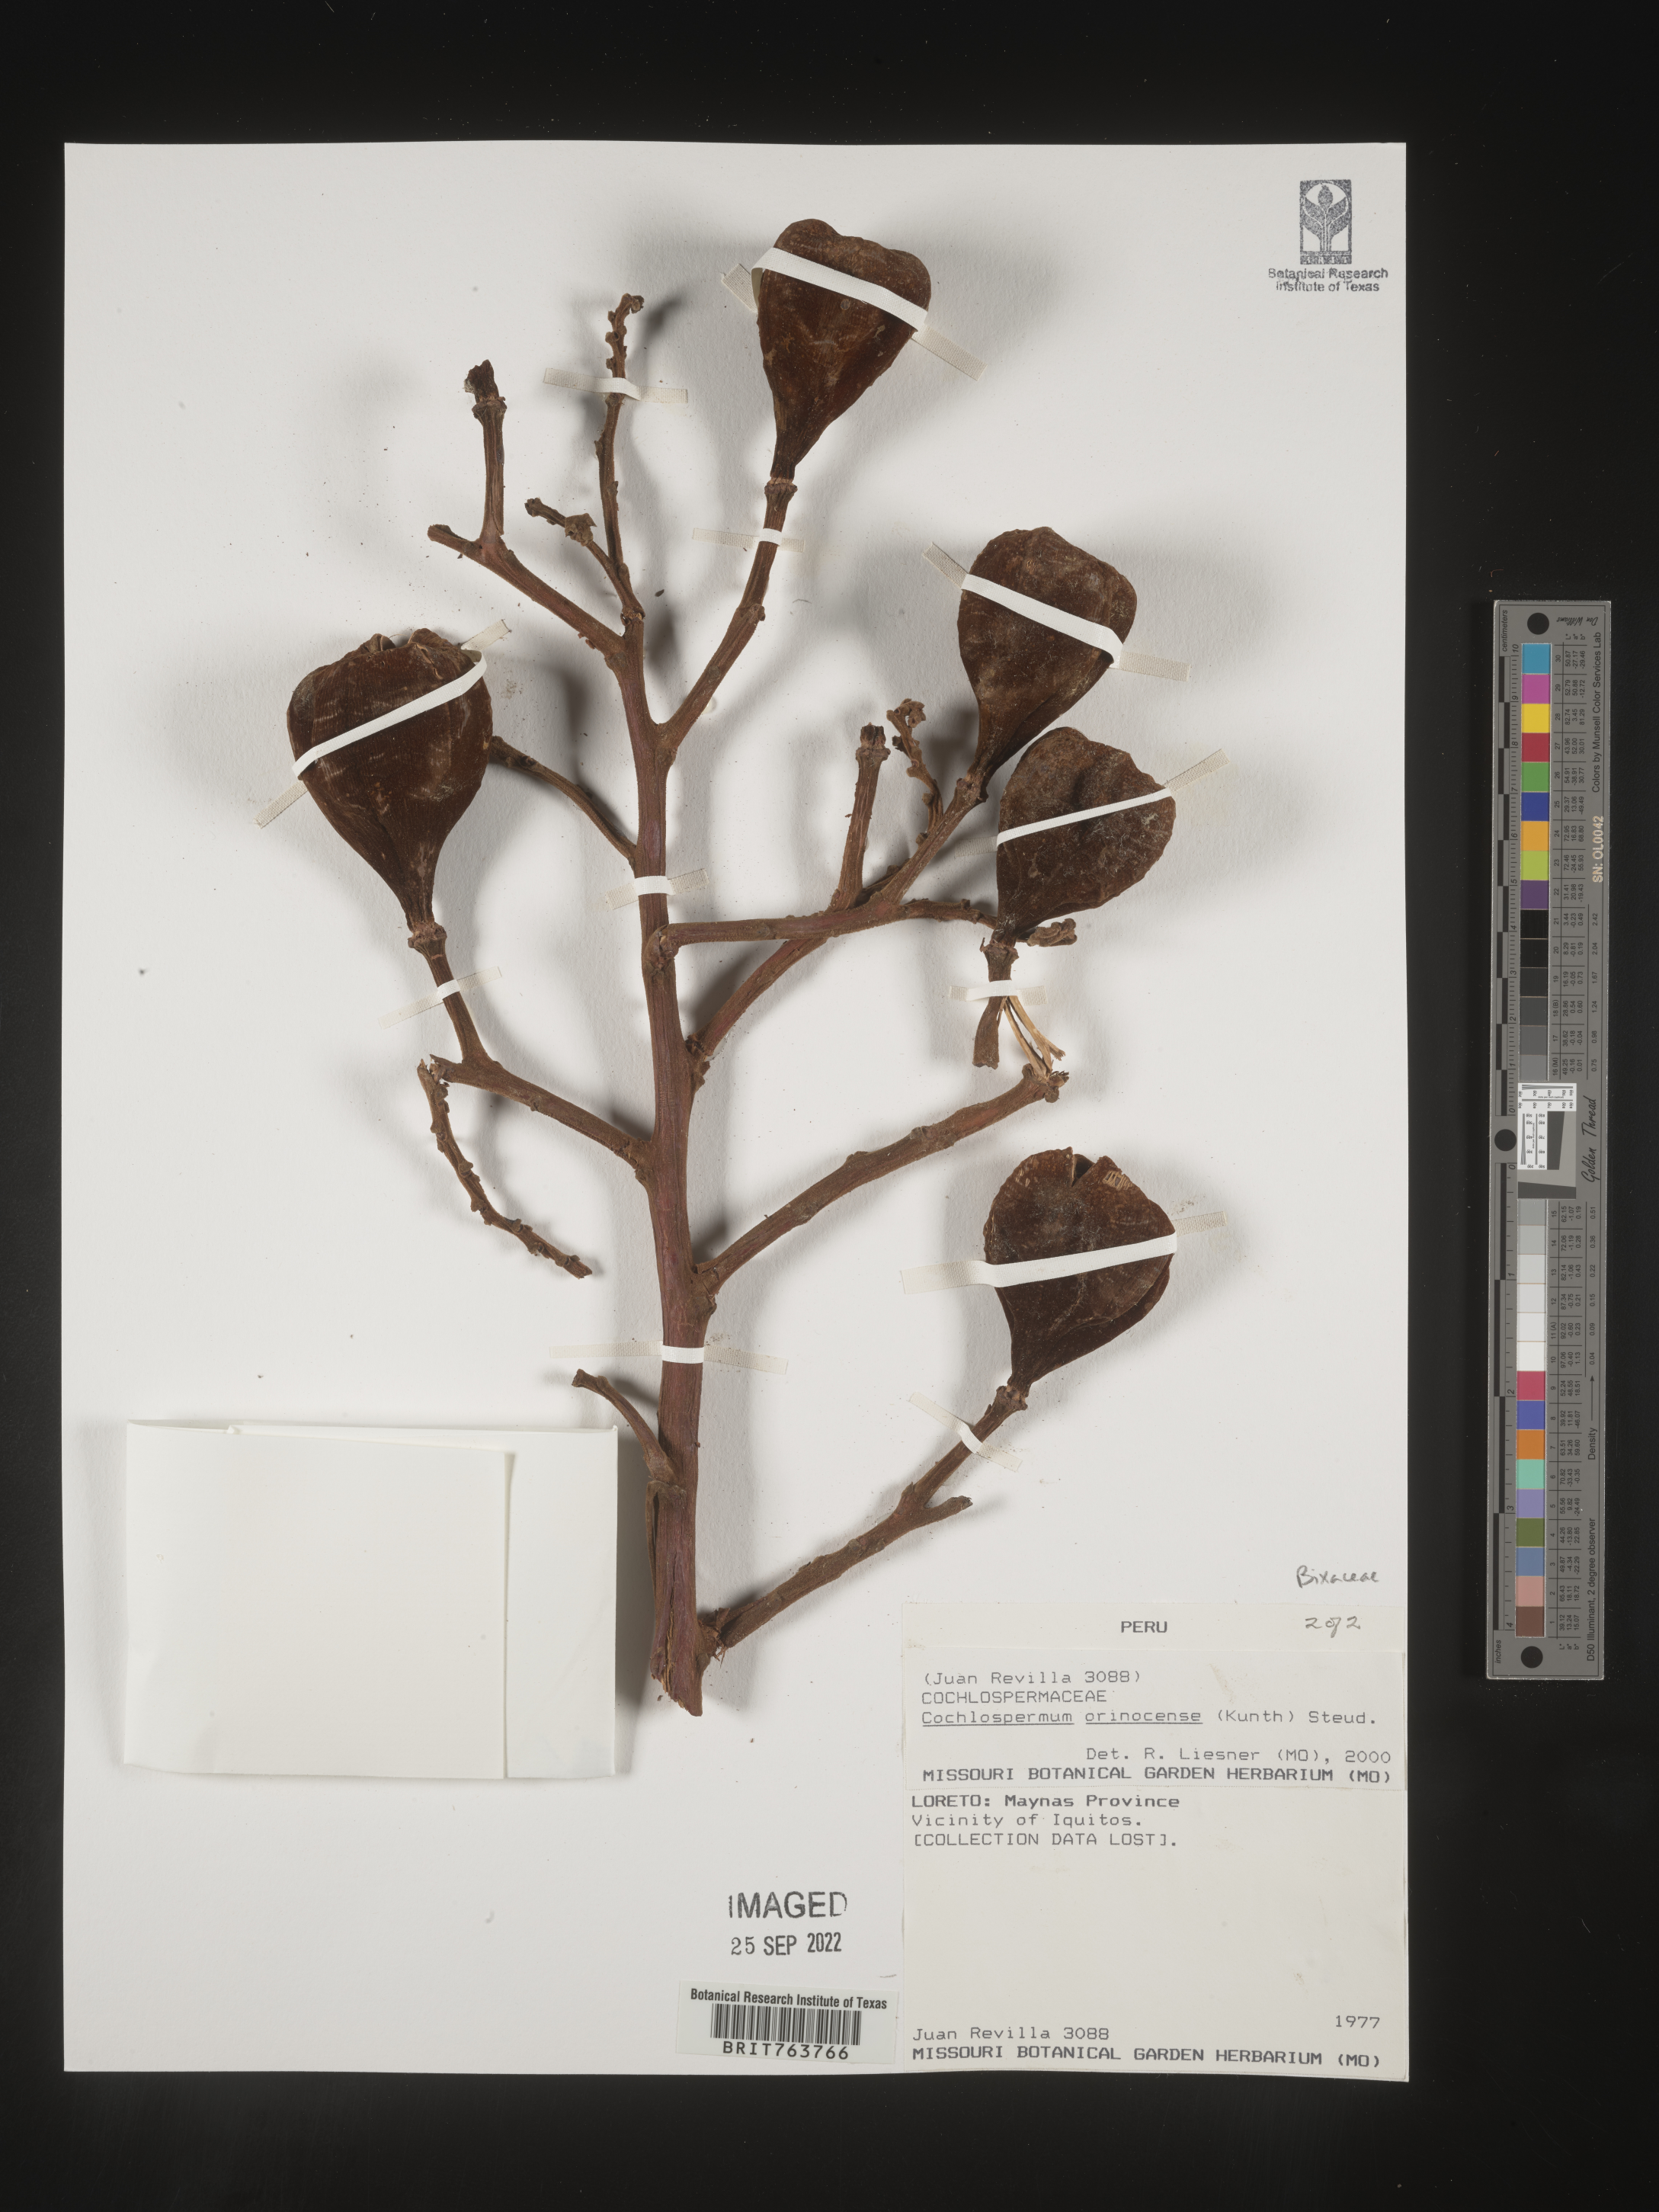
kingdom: Plantae
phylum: Tracheophyta
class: Magnoliopsida
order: Malvales
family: Cochlospermaceae
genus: Cochlospermum
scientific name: Cochlospermum
